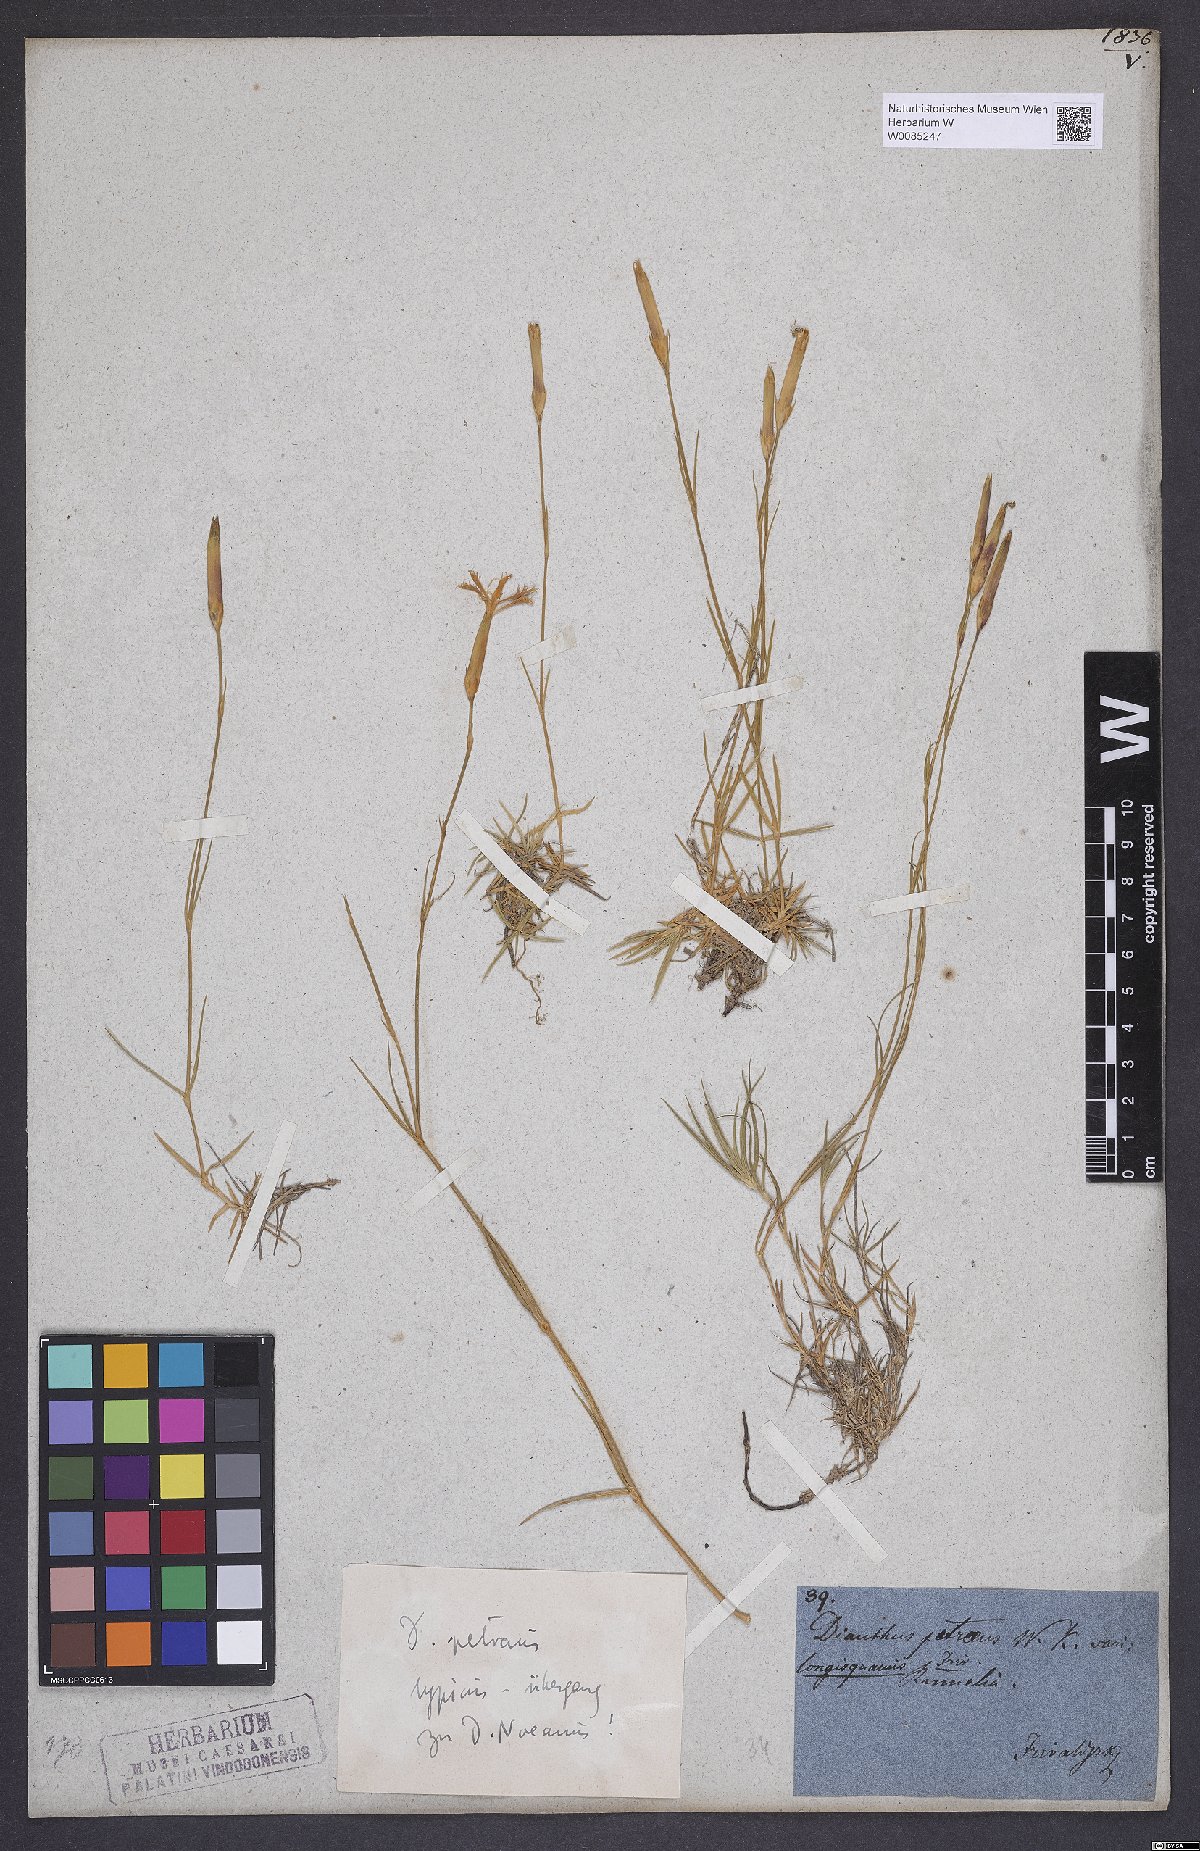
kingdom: Plantae
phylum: Tracheophyta
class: Magnoliopsida
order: Caryophyllales
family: Caryophyllaceae
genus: Dianthus
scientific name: Dianthus petraeus
